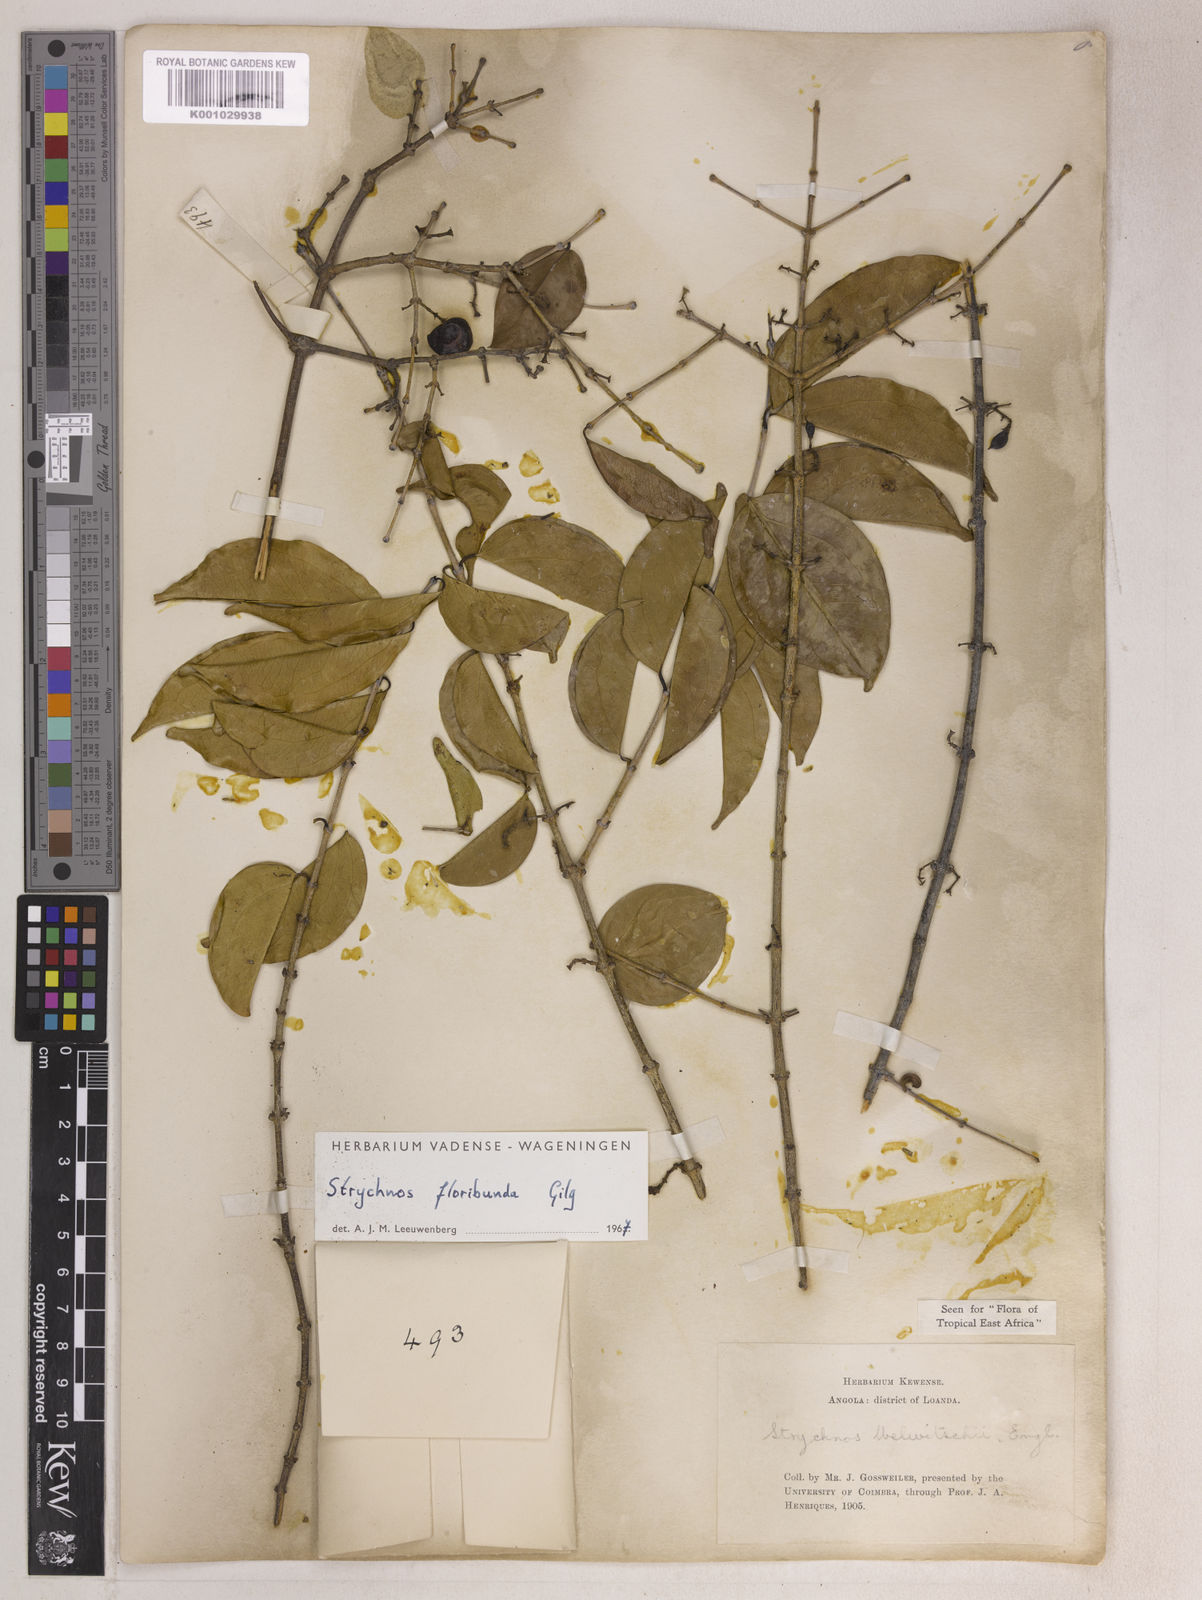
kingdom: Plantae
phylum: Tracheophyta
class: Magnoliopsida
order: Gentianales
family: Loganiaceae
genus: Strychnos
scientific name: Strychnos floribunda
